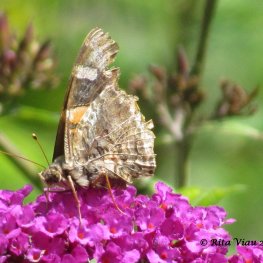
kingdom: Animalia
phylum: Arthropoda
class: Insecta
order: Lepidoptera
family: Nymphalidae
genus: Vanessa
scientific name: Vanessa atalanta
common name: Red Admiral
